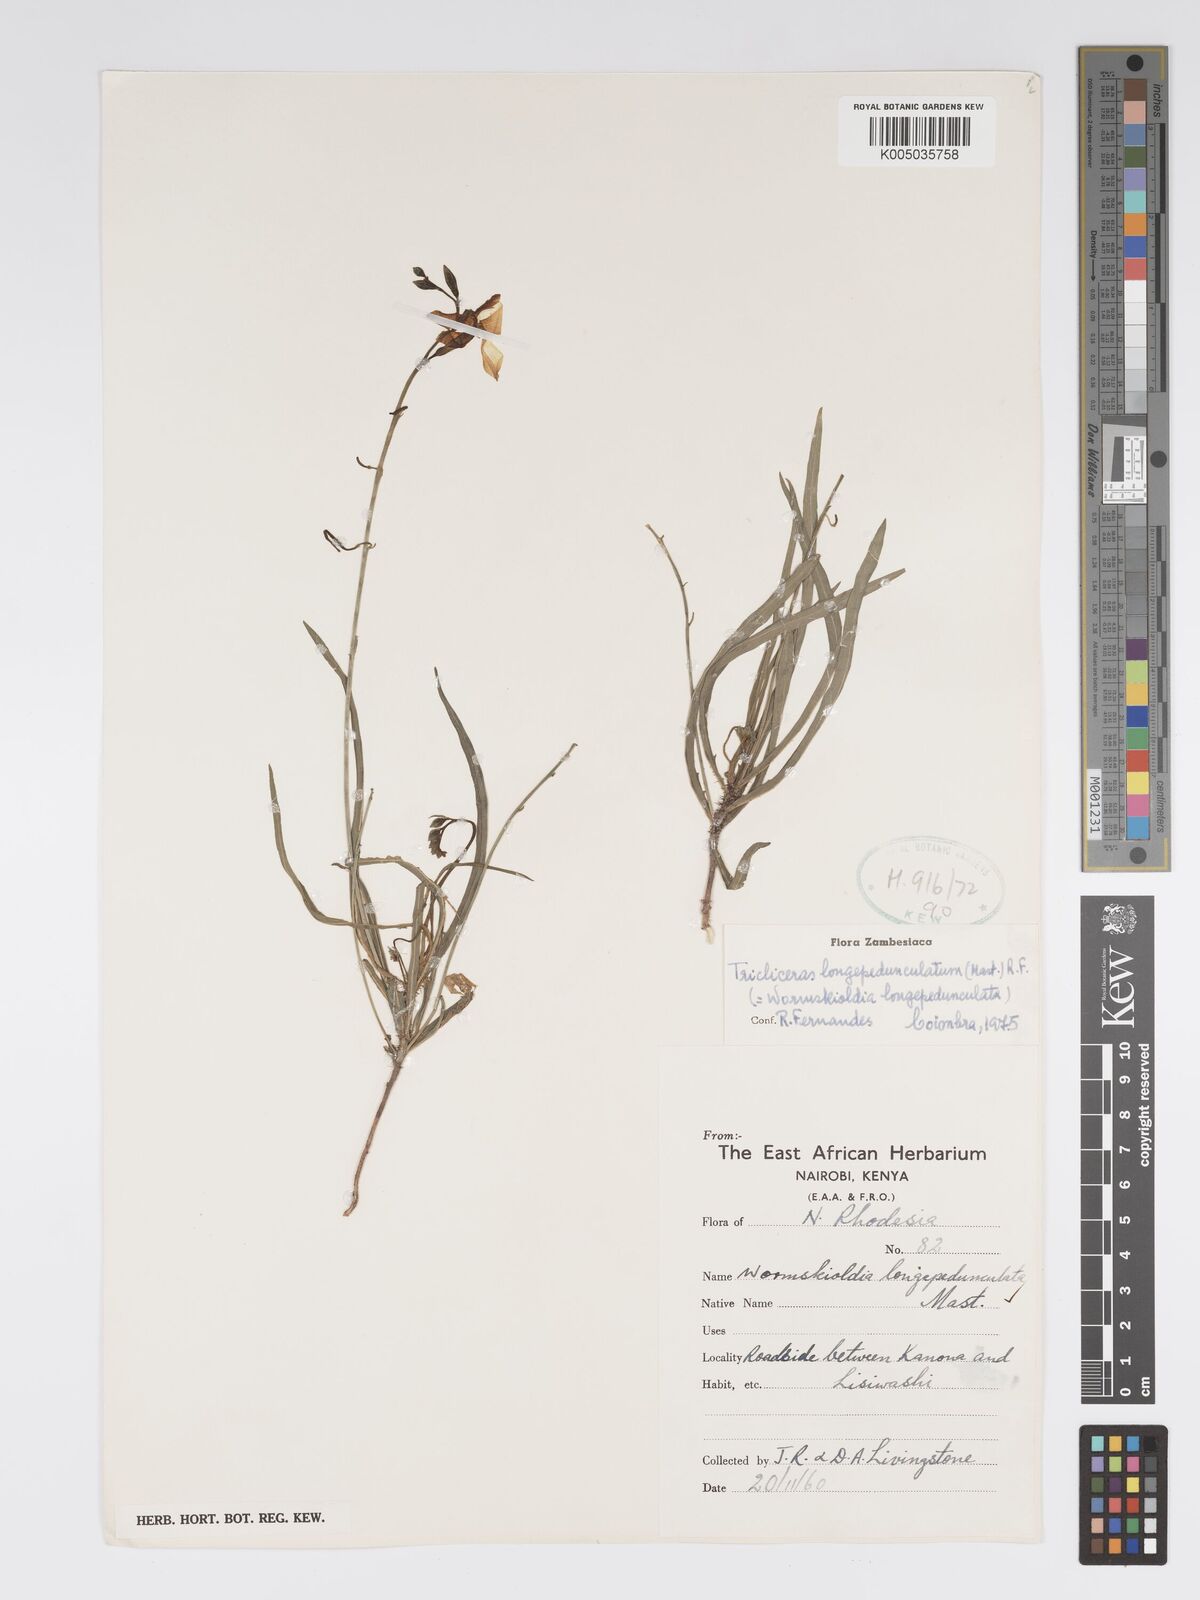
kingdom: Plantae
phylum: Tracheophyta
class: Magnoliopsida
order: Malpighiales
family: Turneraceae
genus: Tricliceras
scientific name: Tricliceras longepedunculatum
